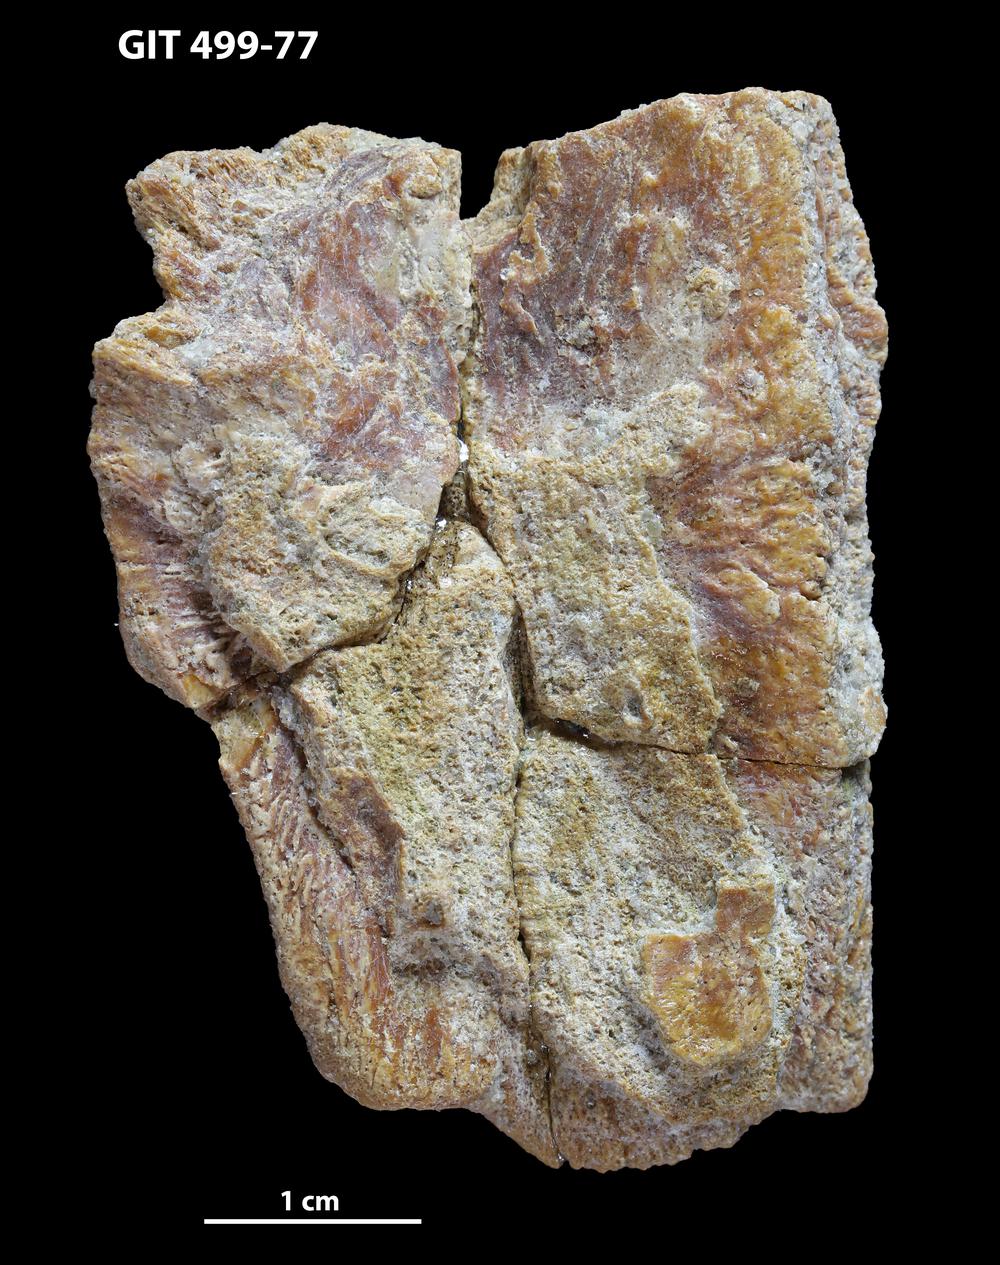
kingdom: Animalia
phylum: Chordata
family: Holoptychiidae
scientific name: Holoptychiidae
